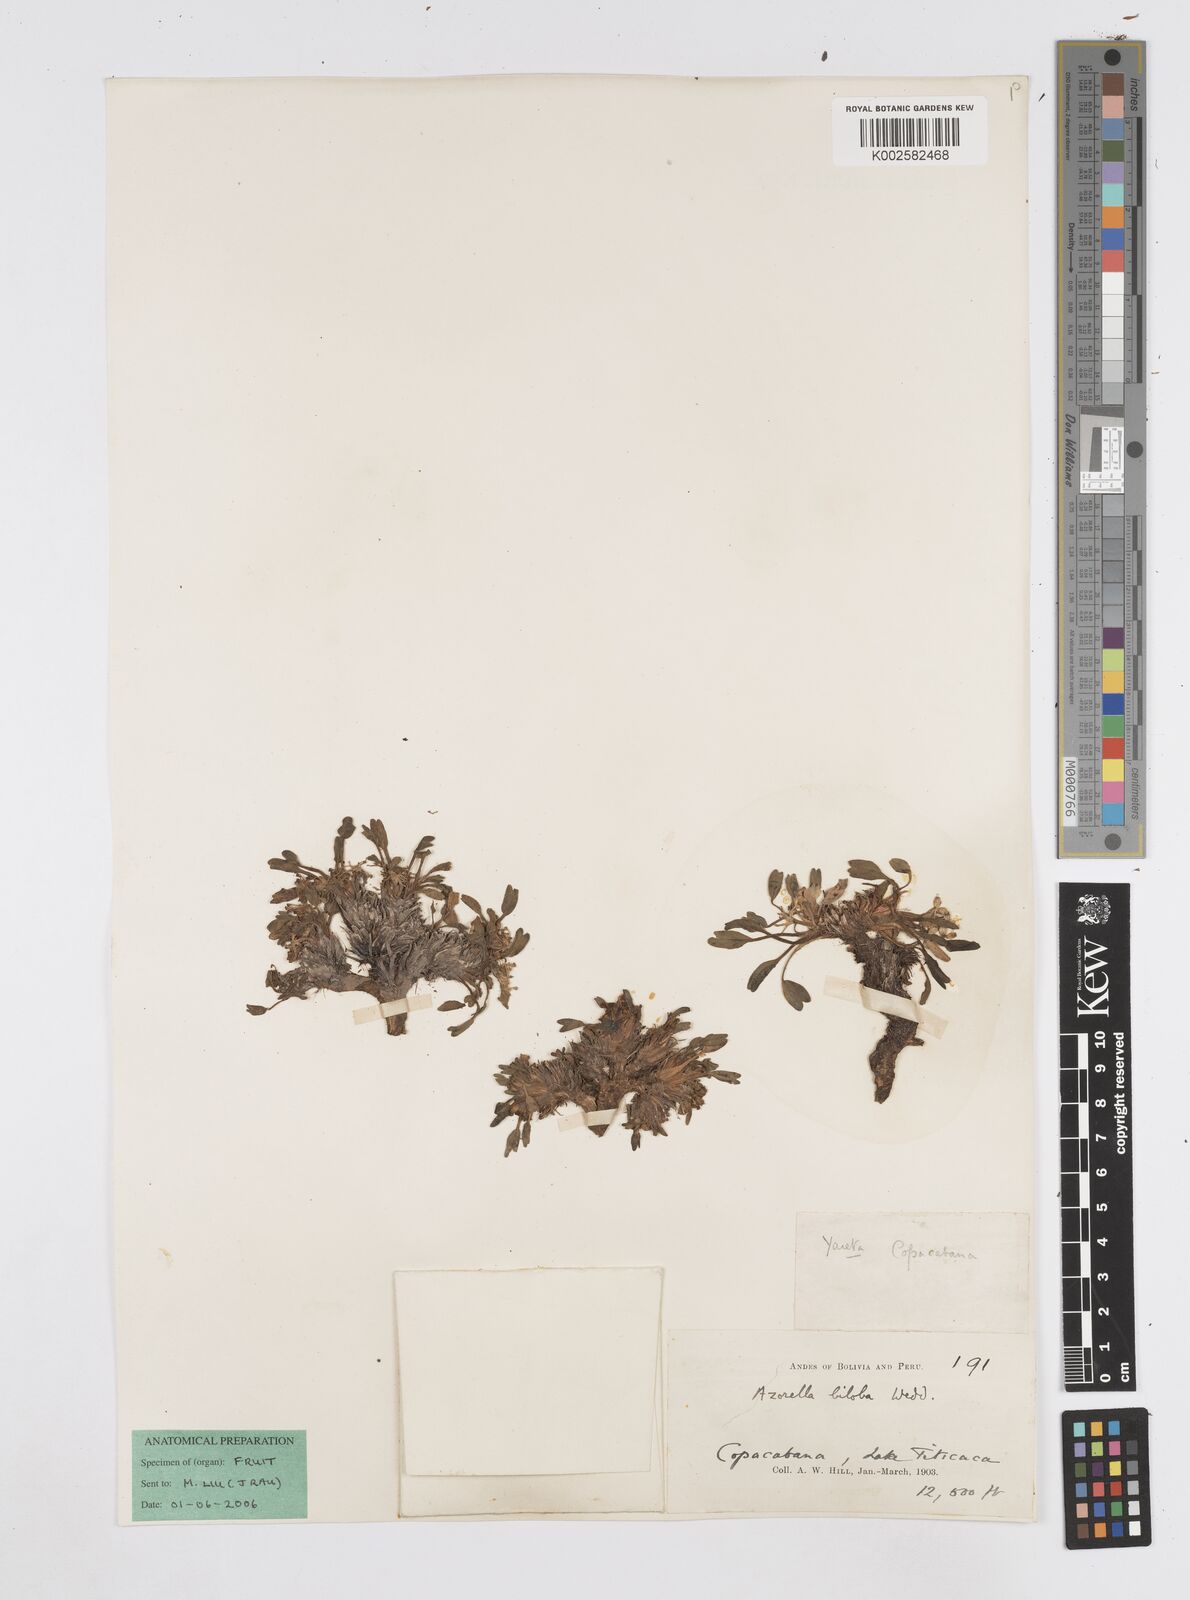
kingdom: Plantae
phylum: Tracheophyta
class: Magnoliopsida
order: Apiales
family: Apiaceae
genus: Azorella
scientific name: Azorella biloba
